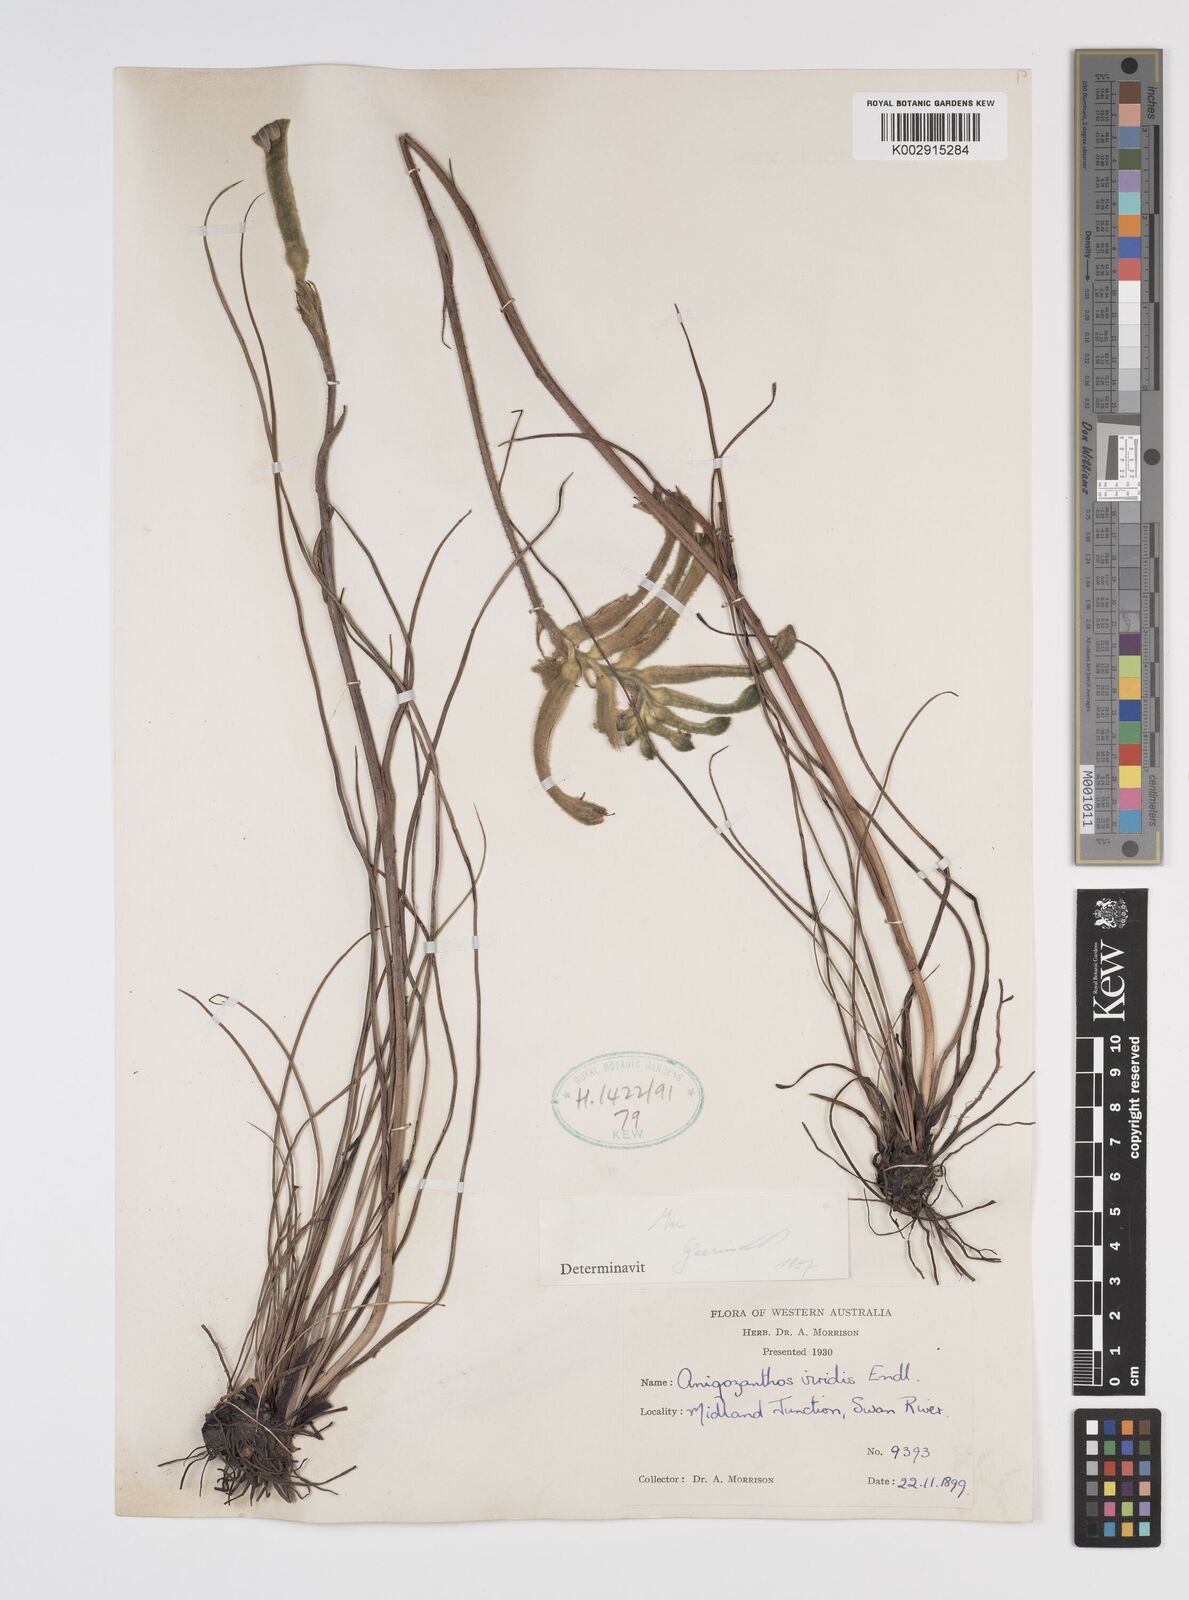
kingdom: Plantae
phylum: Tracheophyta
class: Liliopsida
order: Commelinales
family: Haemodoraceae
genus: Anigozanthos
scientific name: Anigozanthos viridis
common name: Green kangaroo-paw
